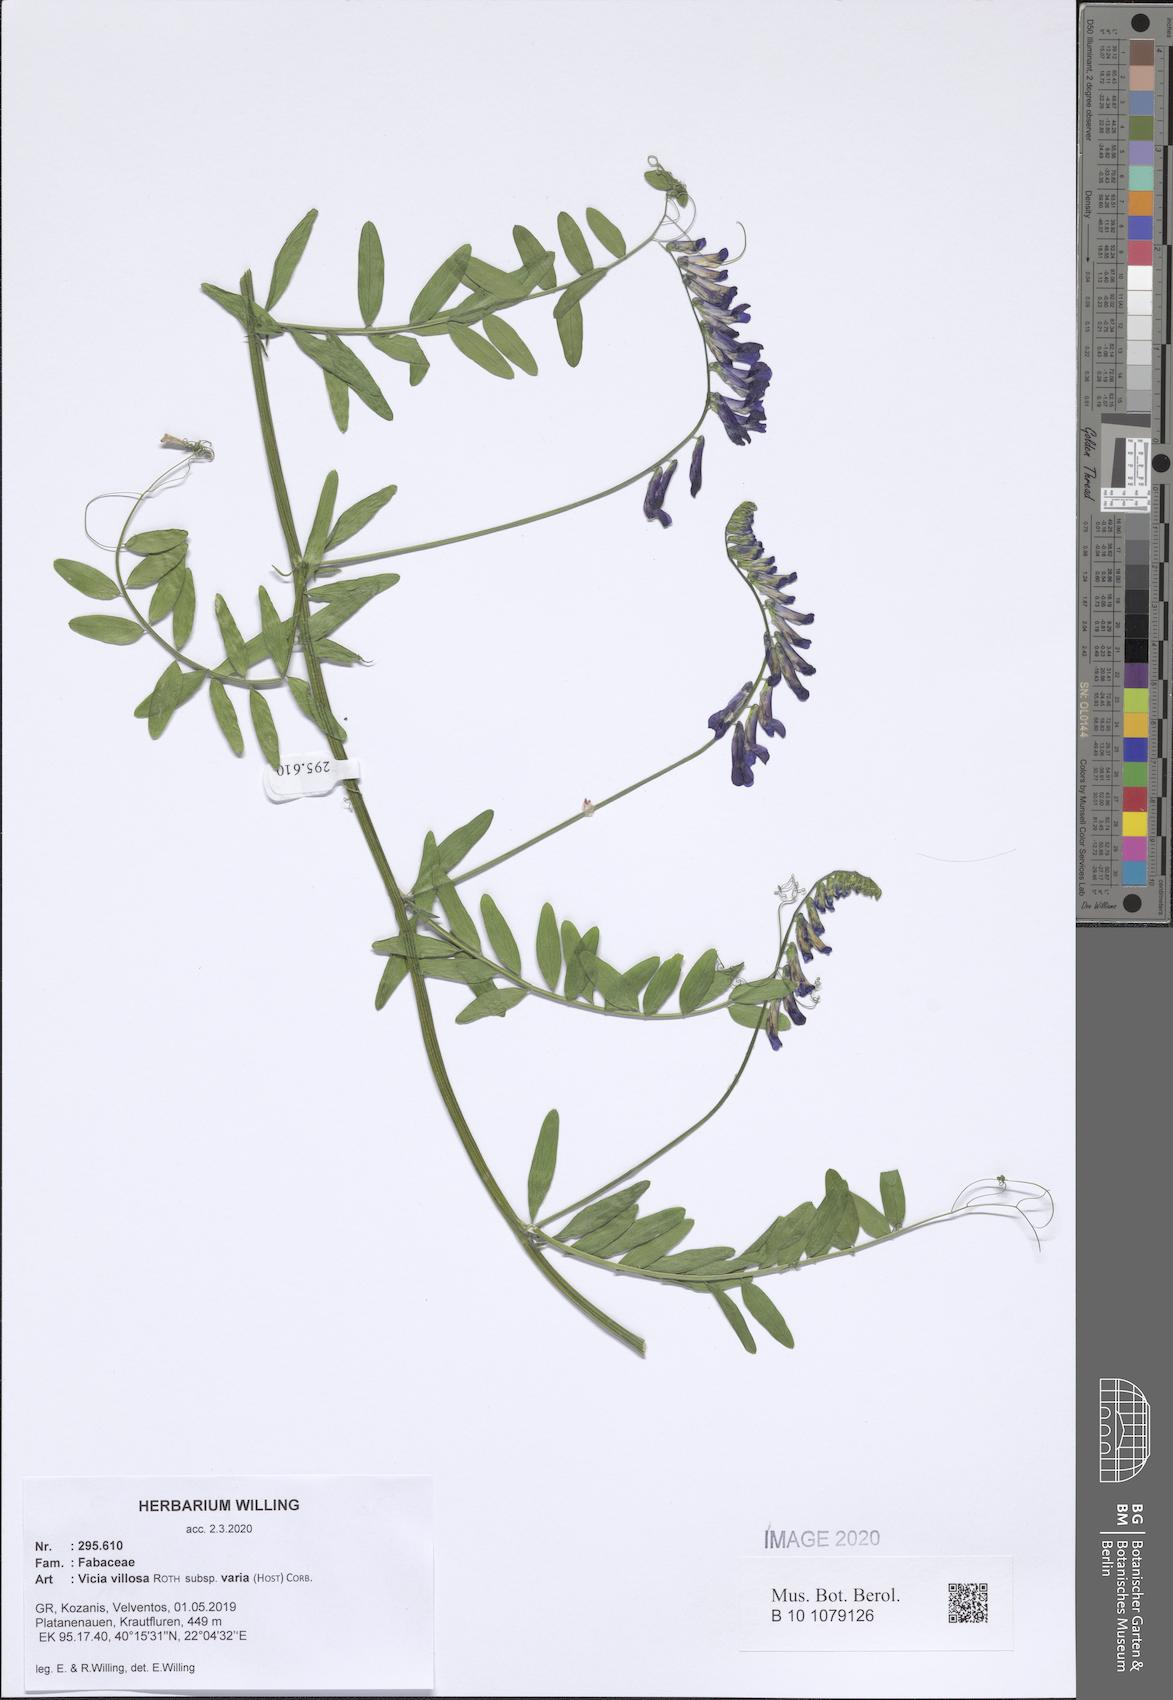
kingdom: Plantae
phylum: Tracheophyta
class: Magnoliopsida
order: Fabales
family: Fabaceae
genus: Vicia
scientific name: Vicia villosa
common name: Fodder vetch
